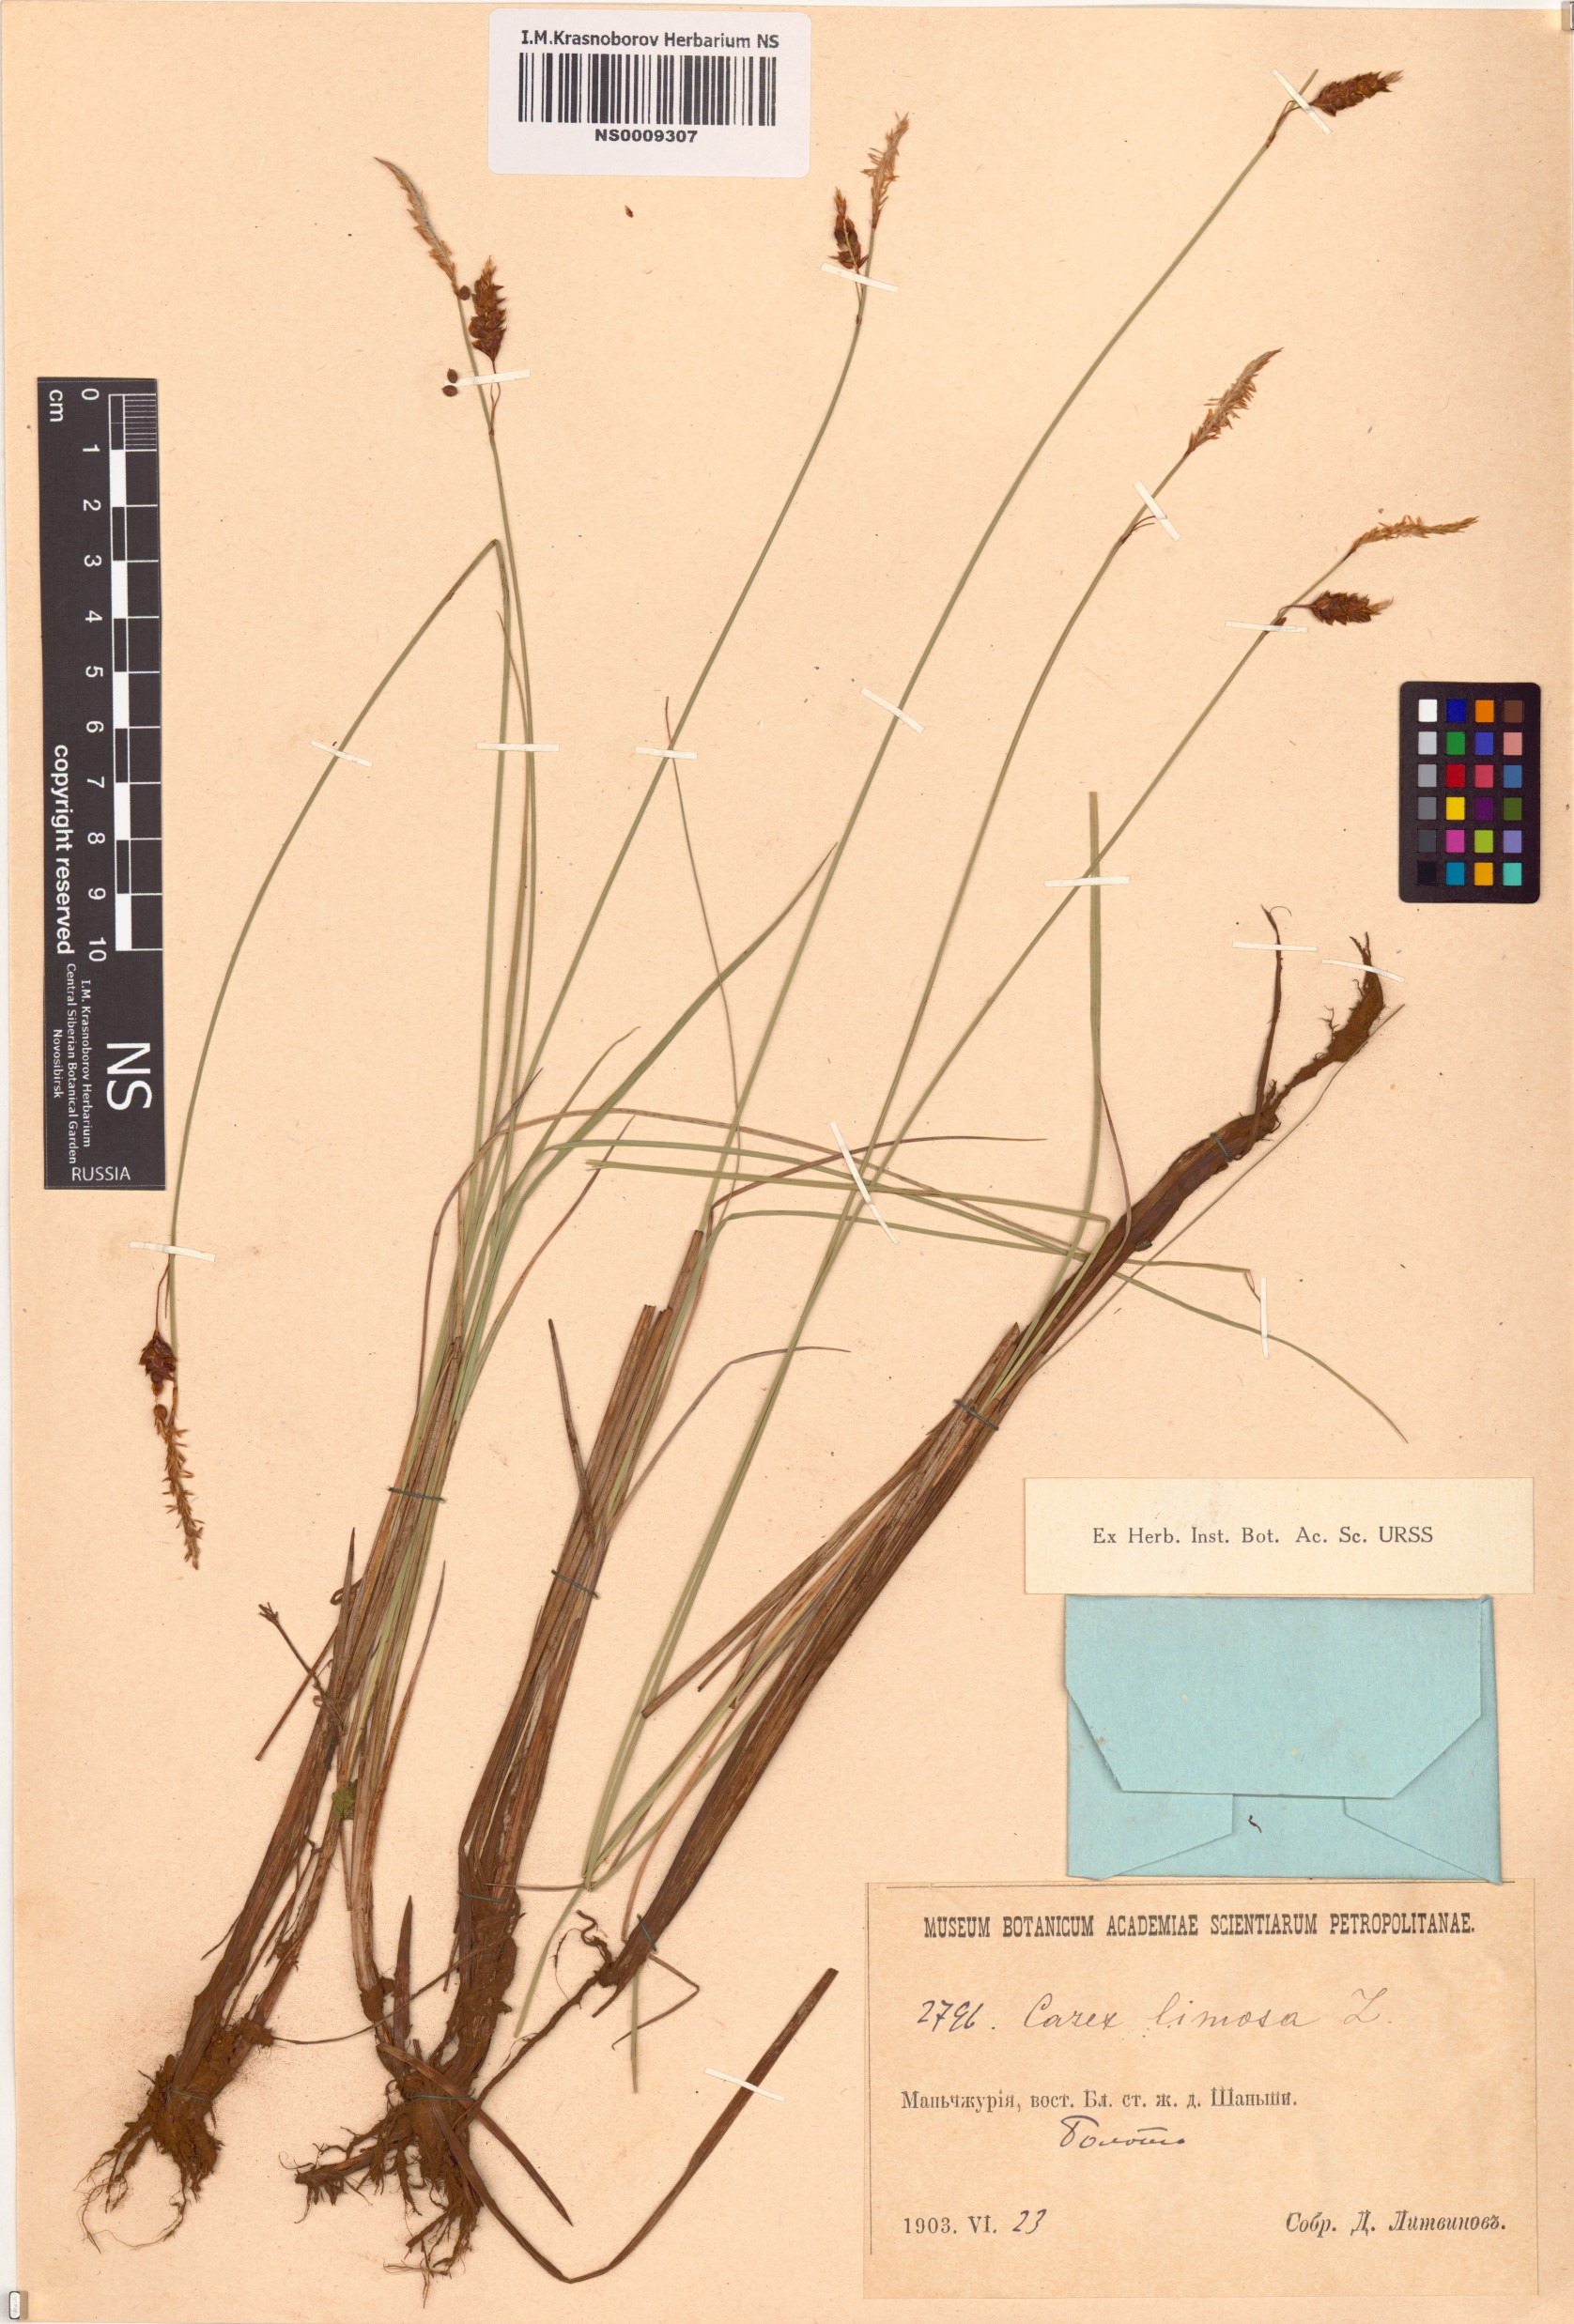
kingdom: Plantae
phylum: Tracheophyta
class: Liliopsida
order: Poales
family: Cyperaceae
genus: Carex
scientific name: Carex limosa
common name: Bog sedge
